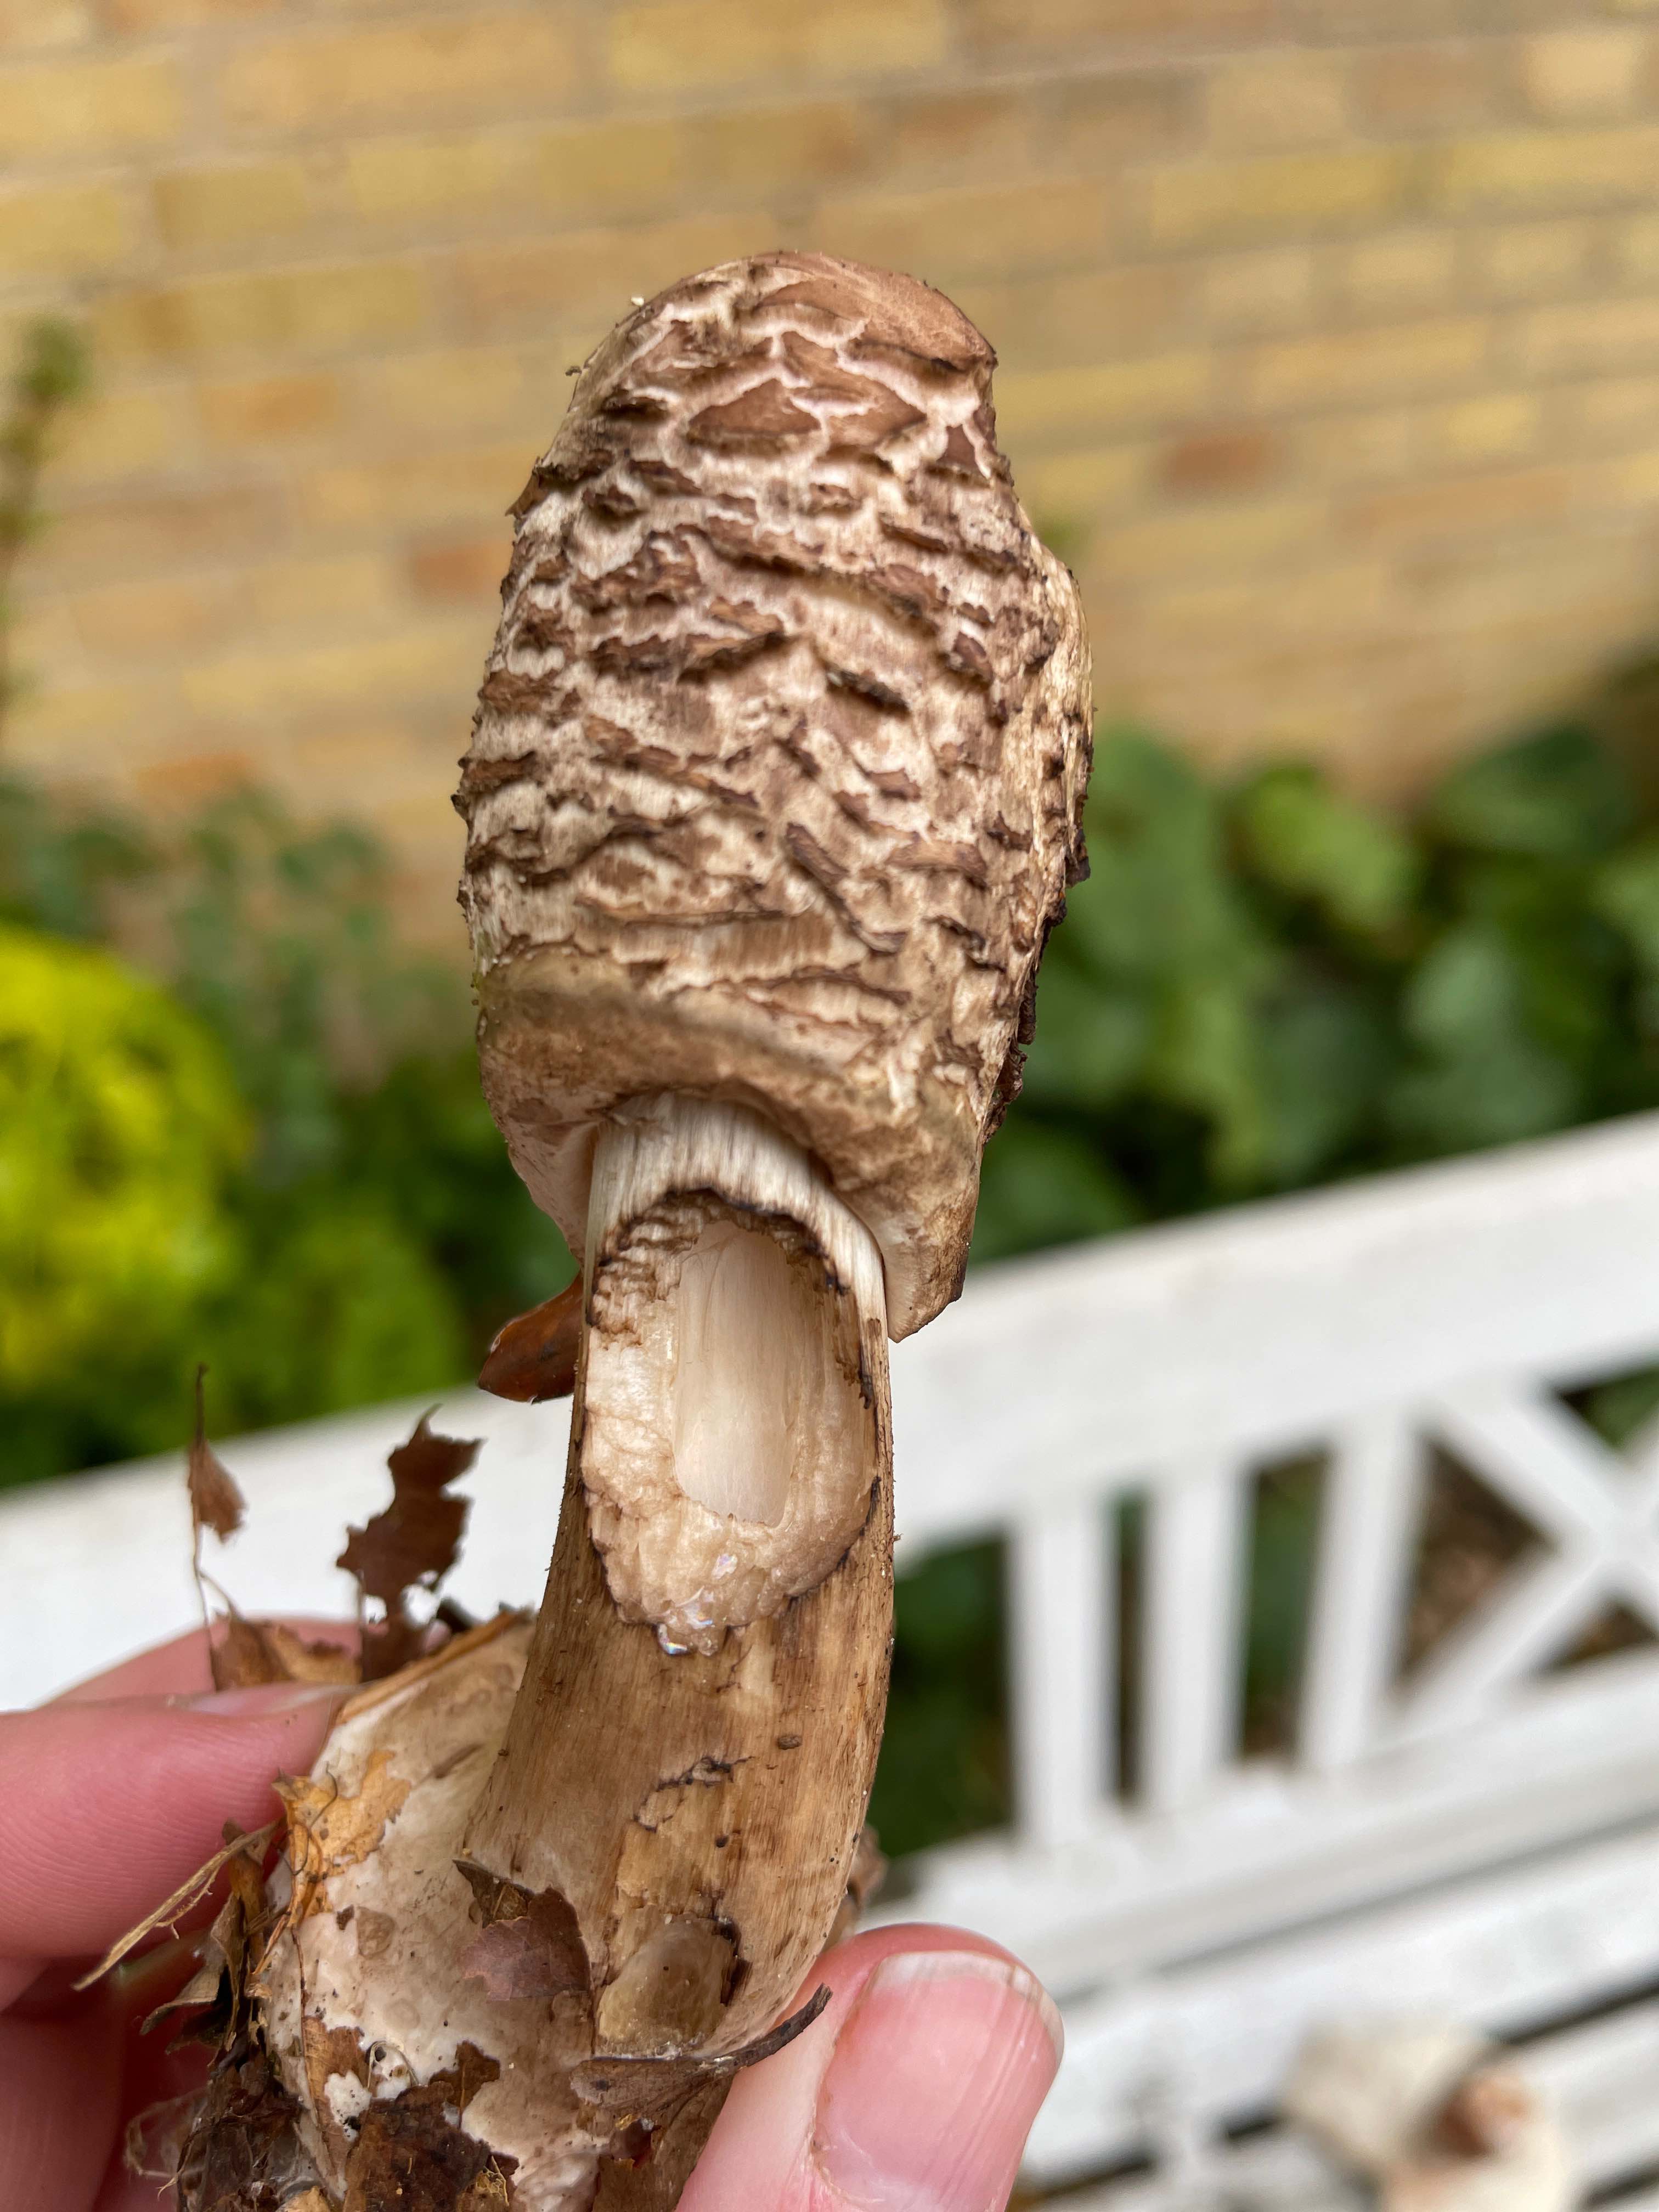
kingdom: Fungi
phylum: Basidiomycota
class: Agaricomycetes
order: Agaricales
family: Agaricaceae
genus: Chlorophyllum
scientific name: Chlorophyllum
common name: rabarberhat
